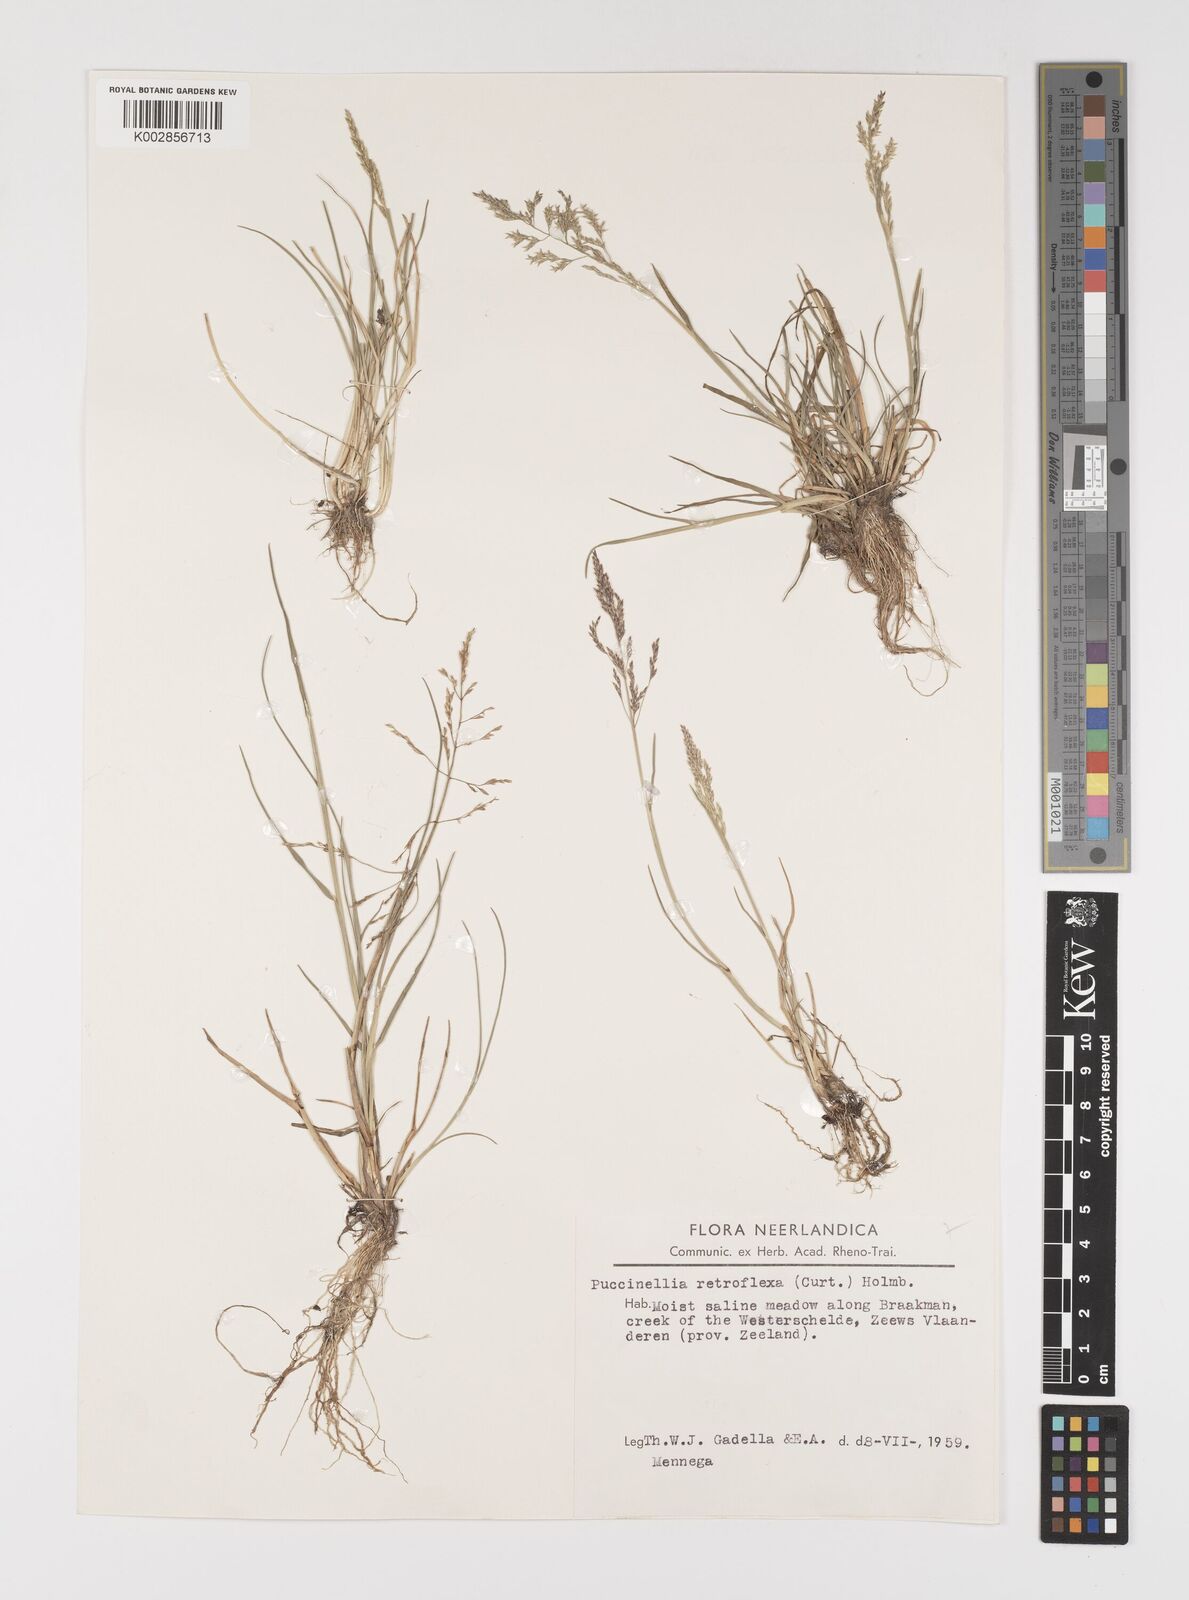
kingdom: Plantae
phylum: Tracheophyta
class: Liliopsida
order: Poales
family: Poaceae
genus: Puccinellia
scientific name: Puccinellia
